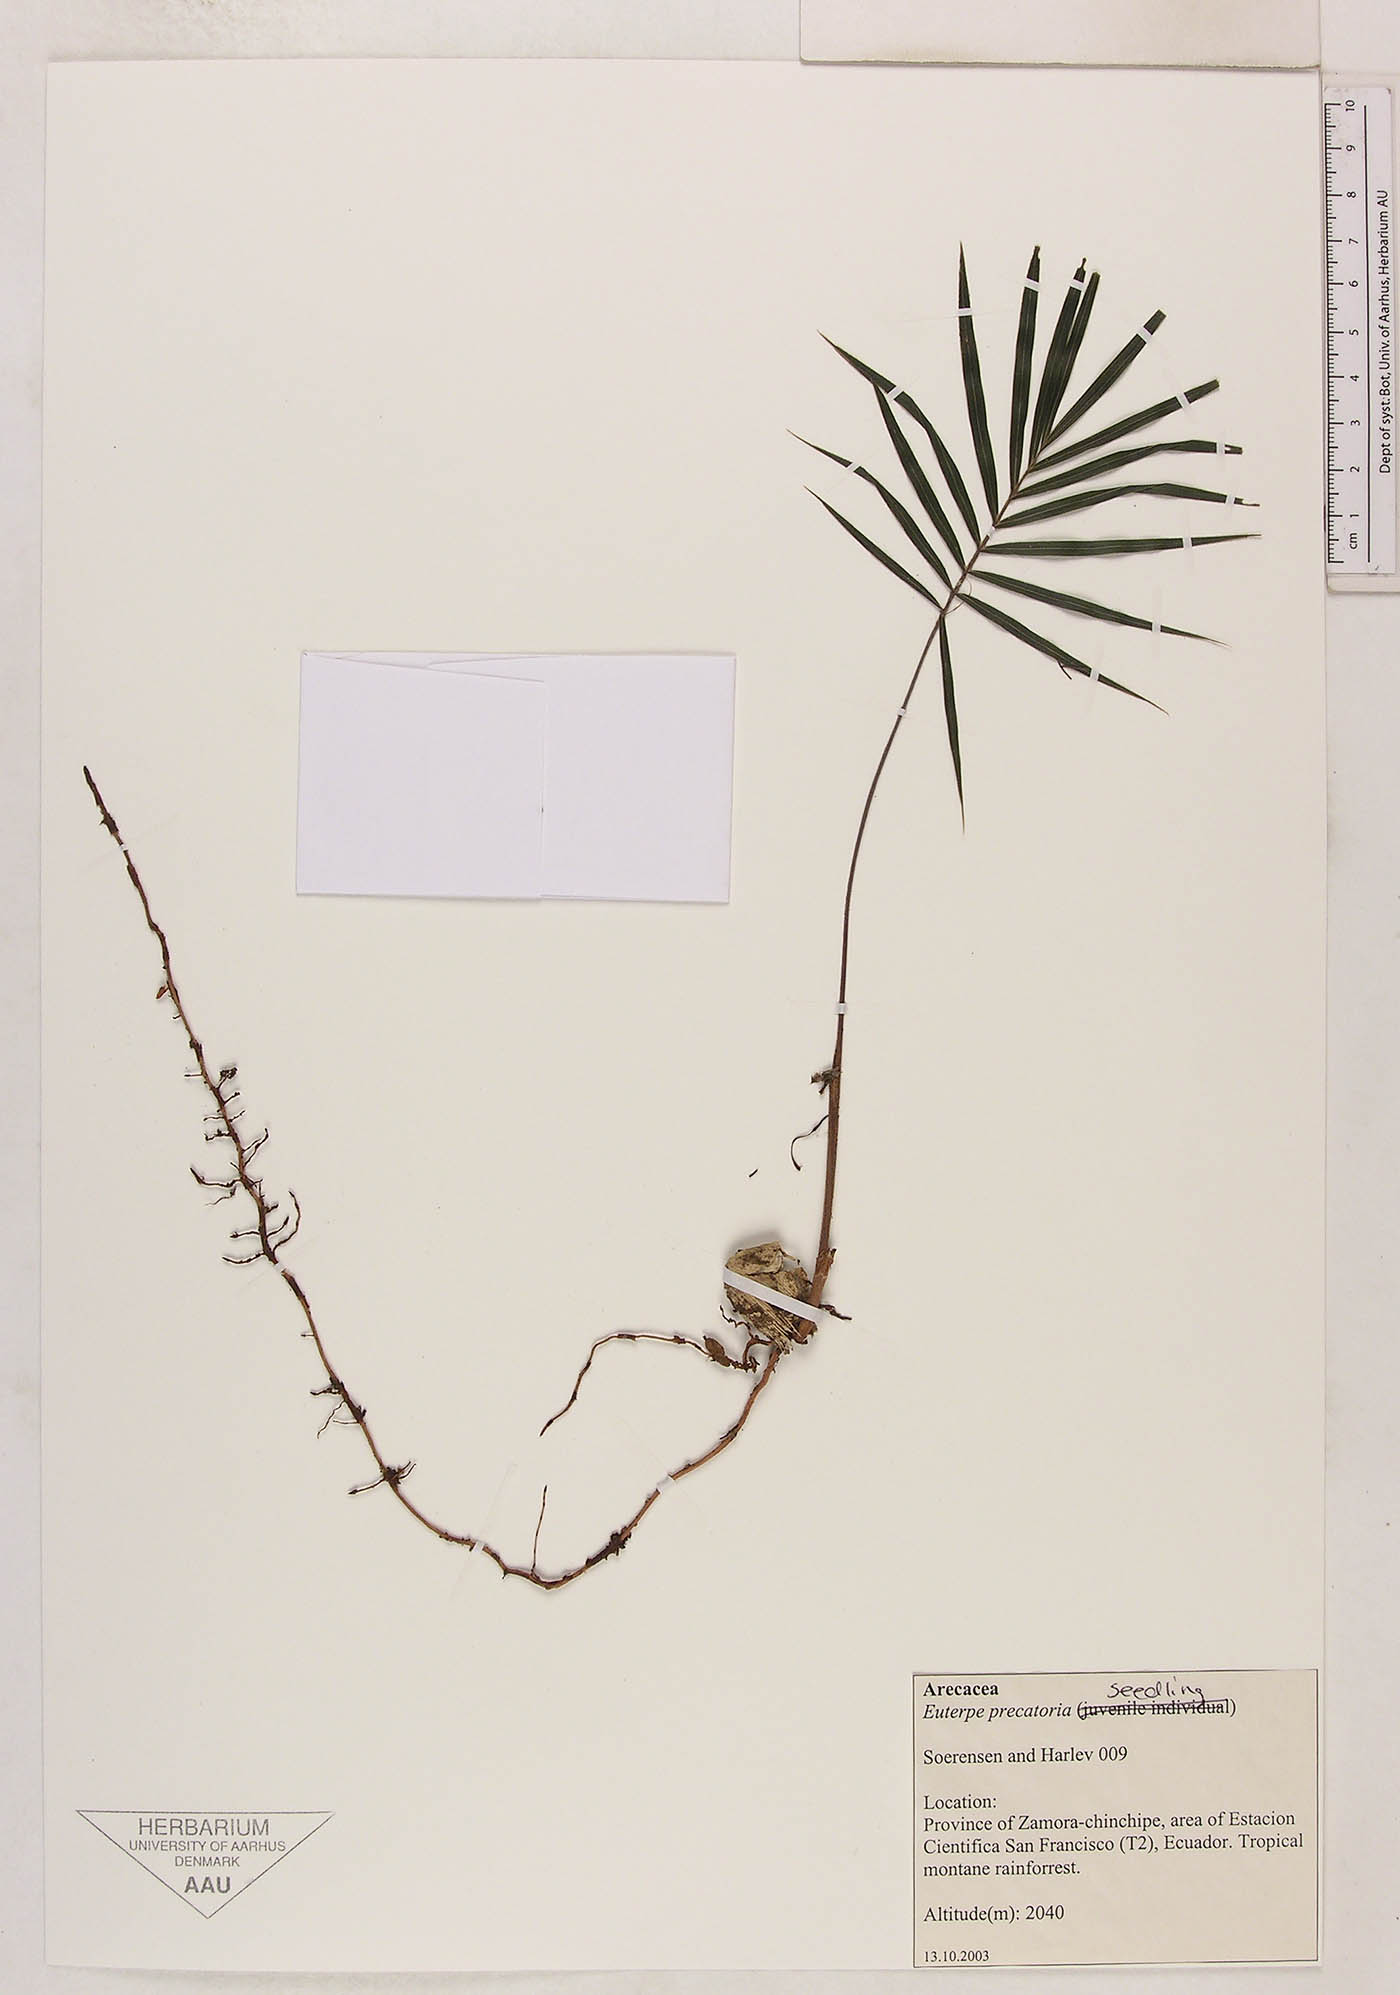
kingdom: Plantae
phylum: Tracheophyta
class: Liliopsida
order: Arecales
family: Arecaceae
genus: Euterpe
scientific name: Euterpe precatoria
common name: Mountain-cabbage
